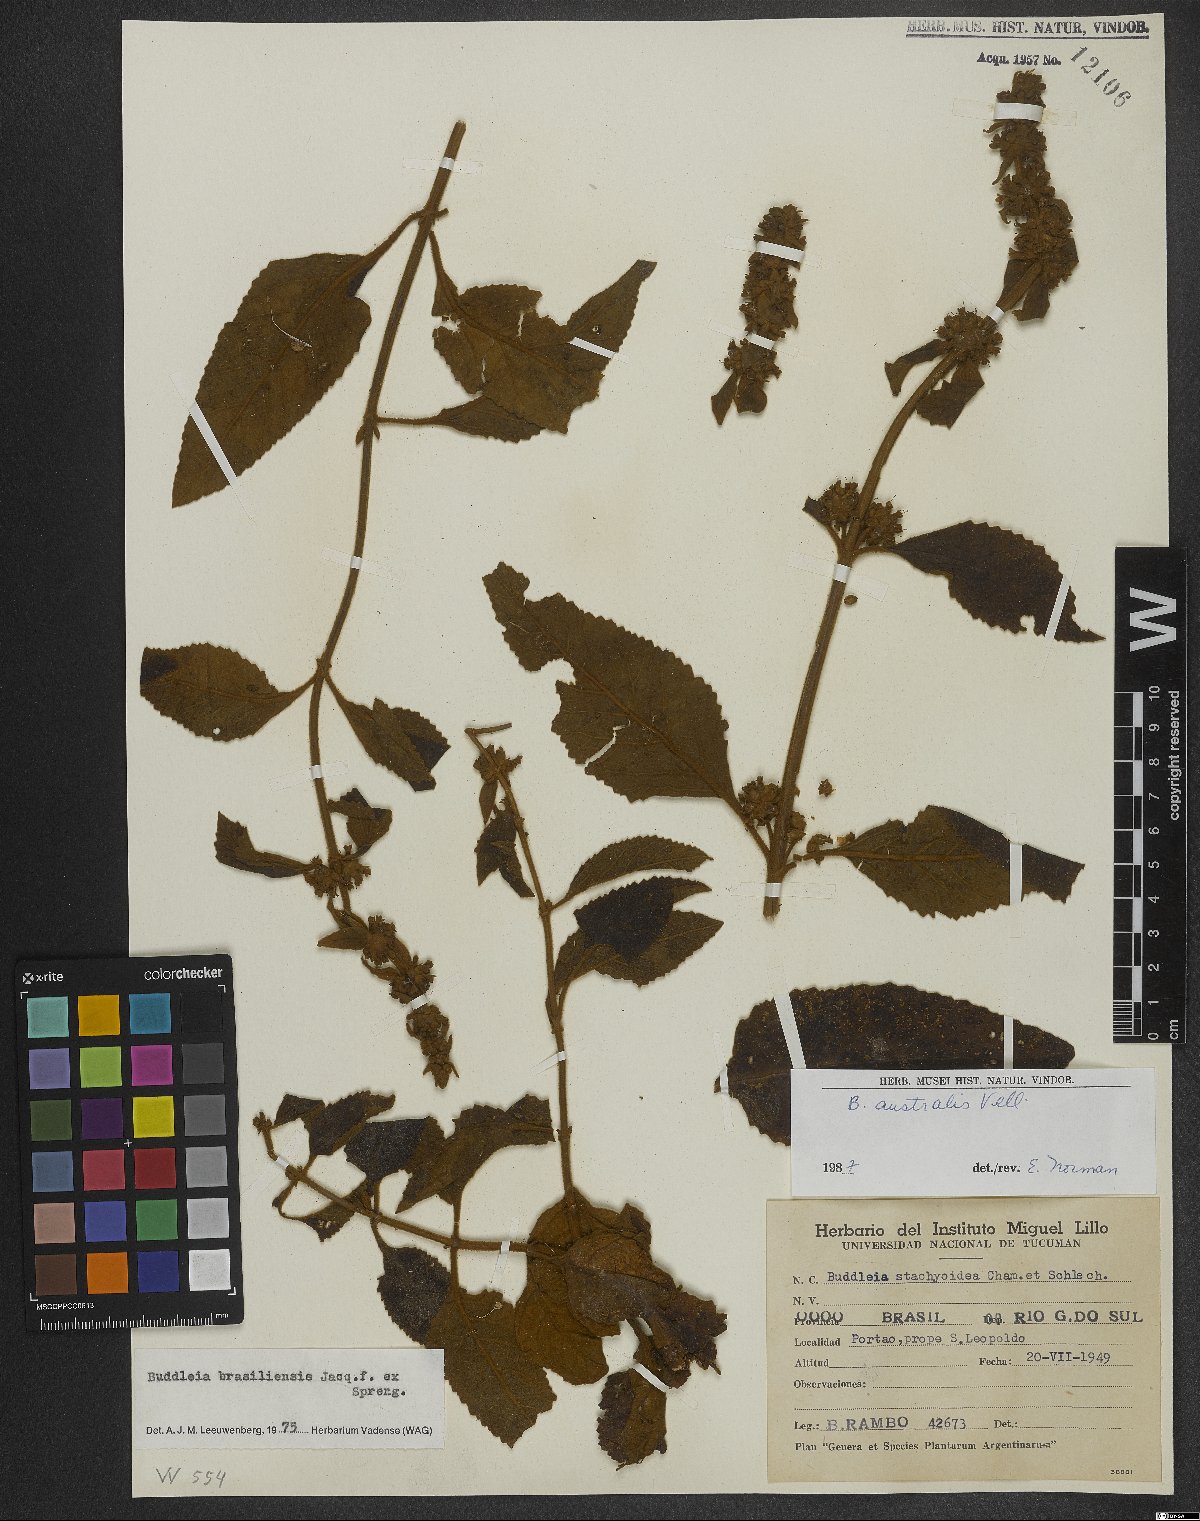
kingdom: Plantae
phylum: Tracheophyta
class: Magnoliopsida
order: Lamiales
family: Scrophulariaceae
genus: Buddleja
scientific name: Buddleja stachyoides
